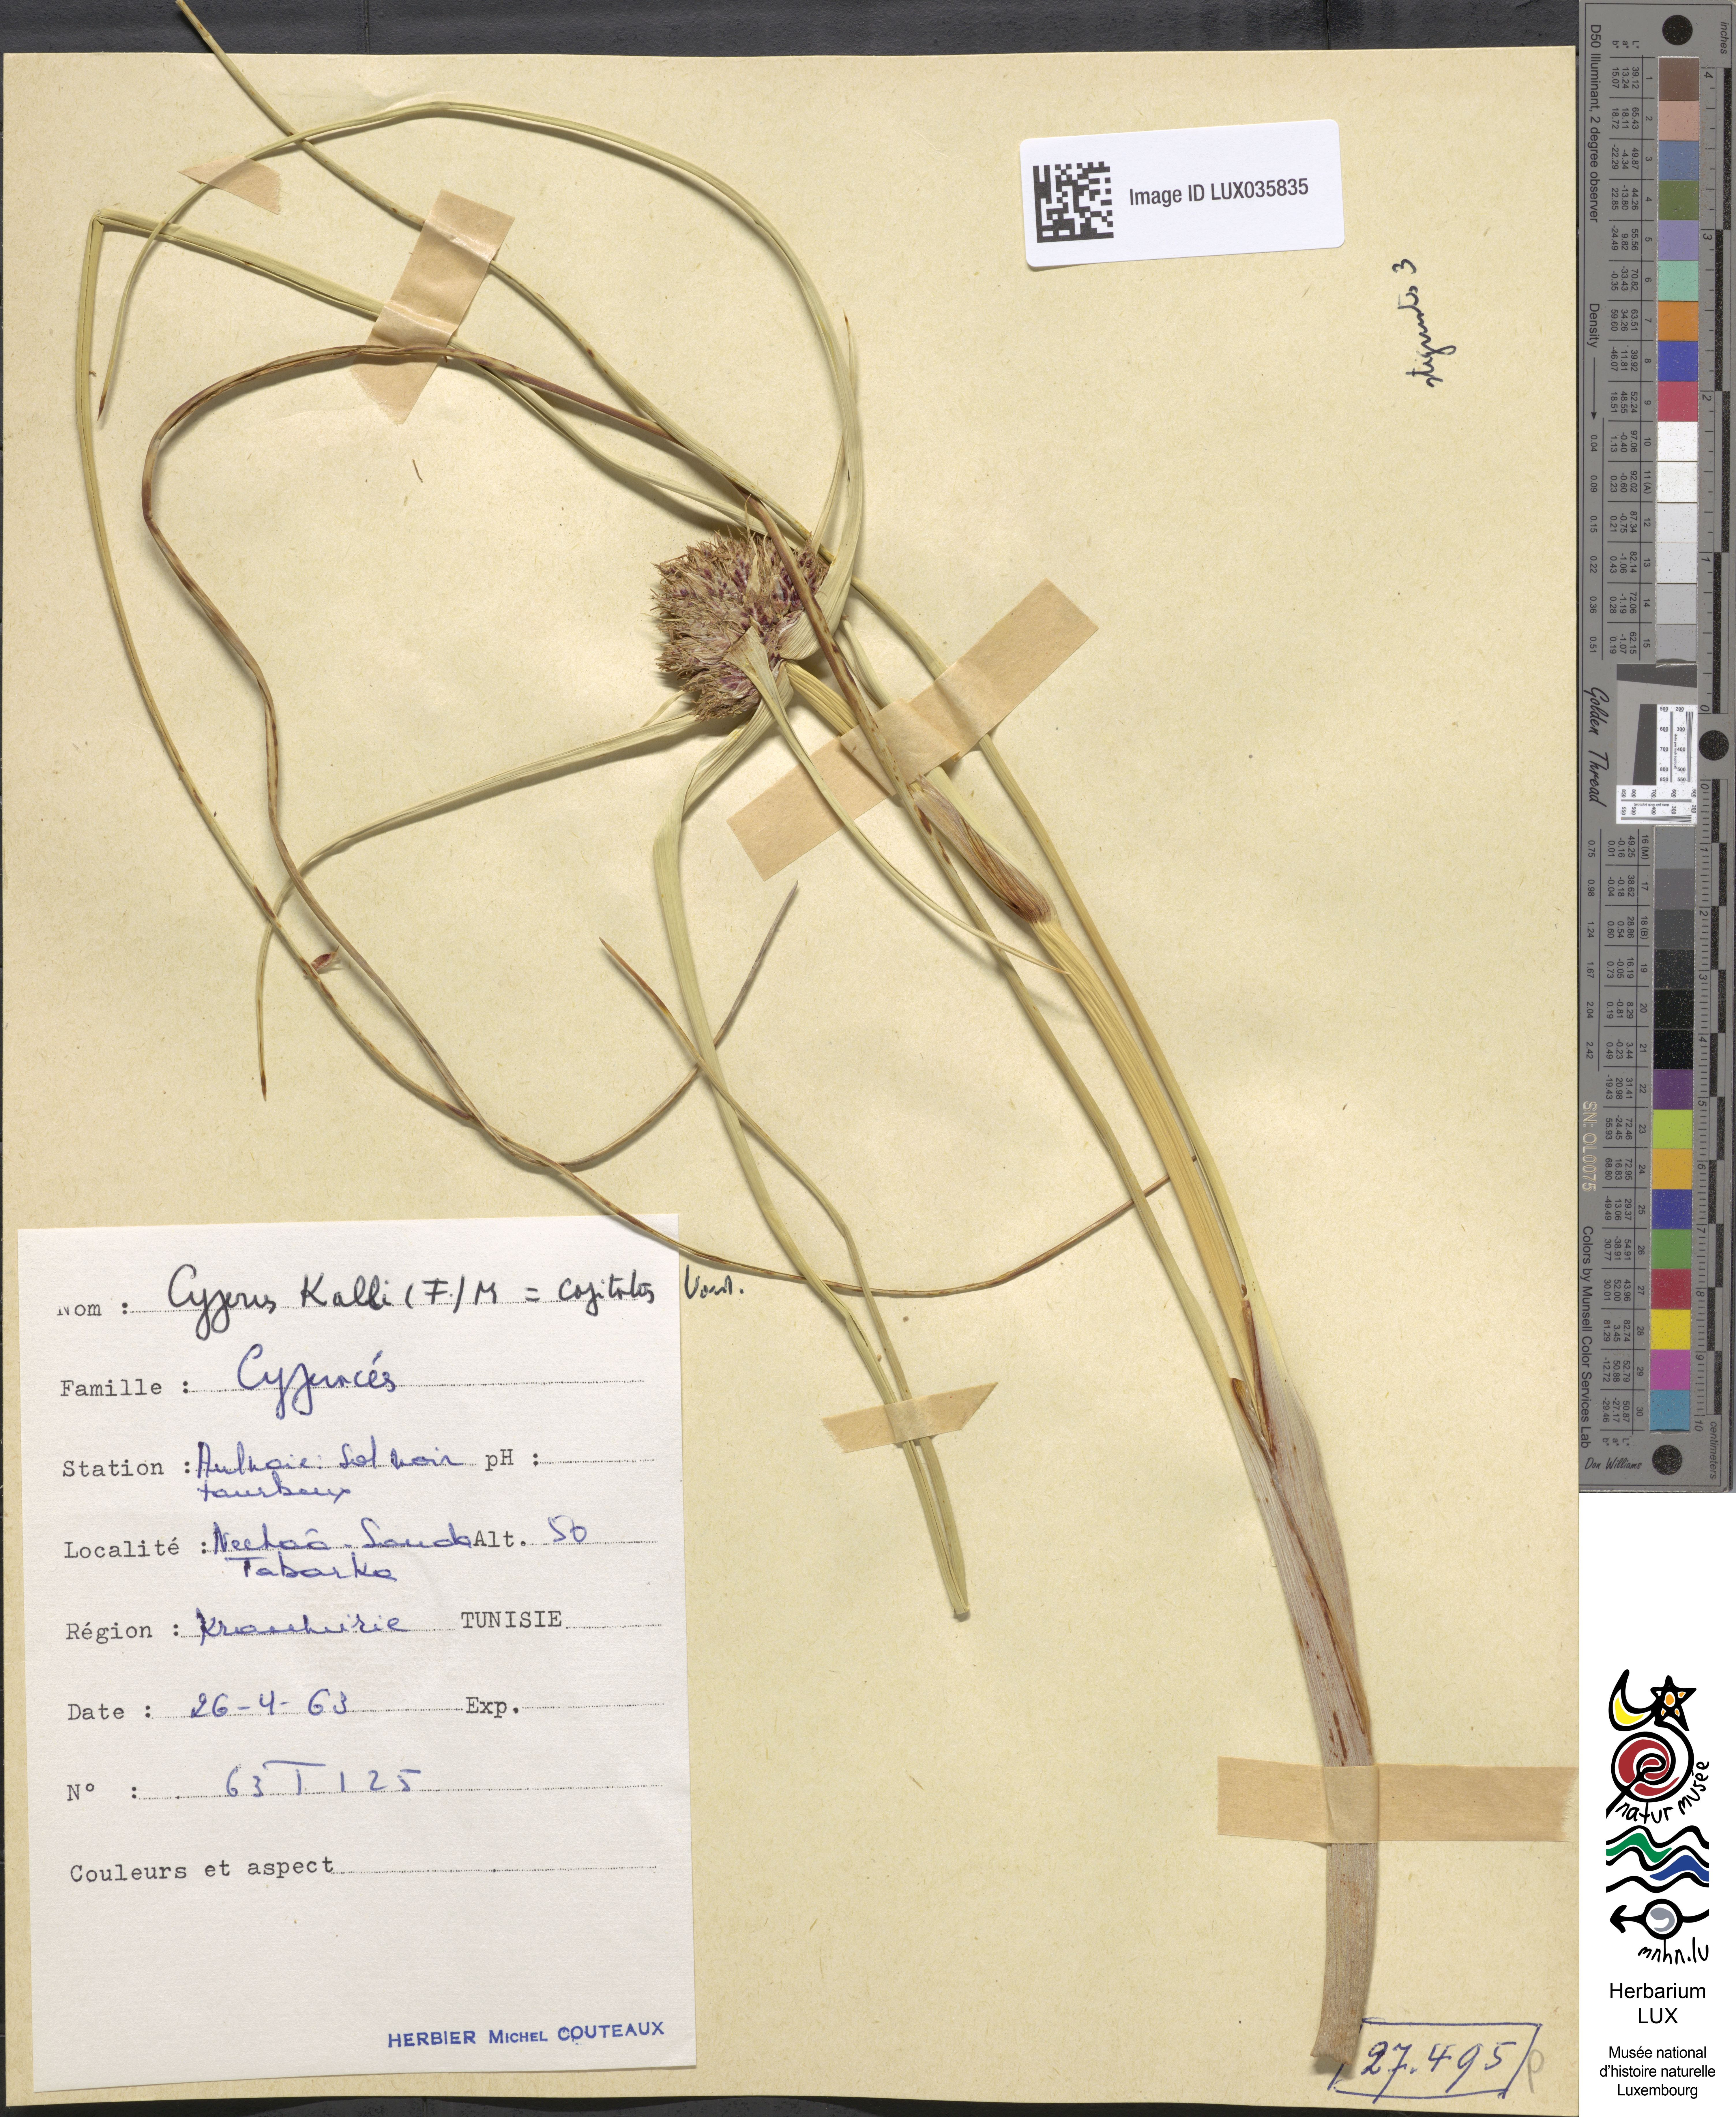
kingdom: Plantae
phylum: Tracheophyta
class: Liliopsida
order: Poales
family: Cyperaceae
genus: Cyperus
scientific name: Cyperus capitatus
